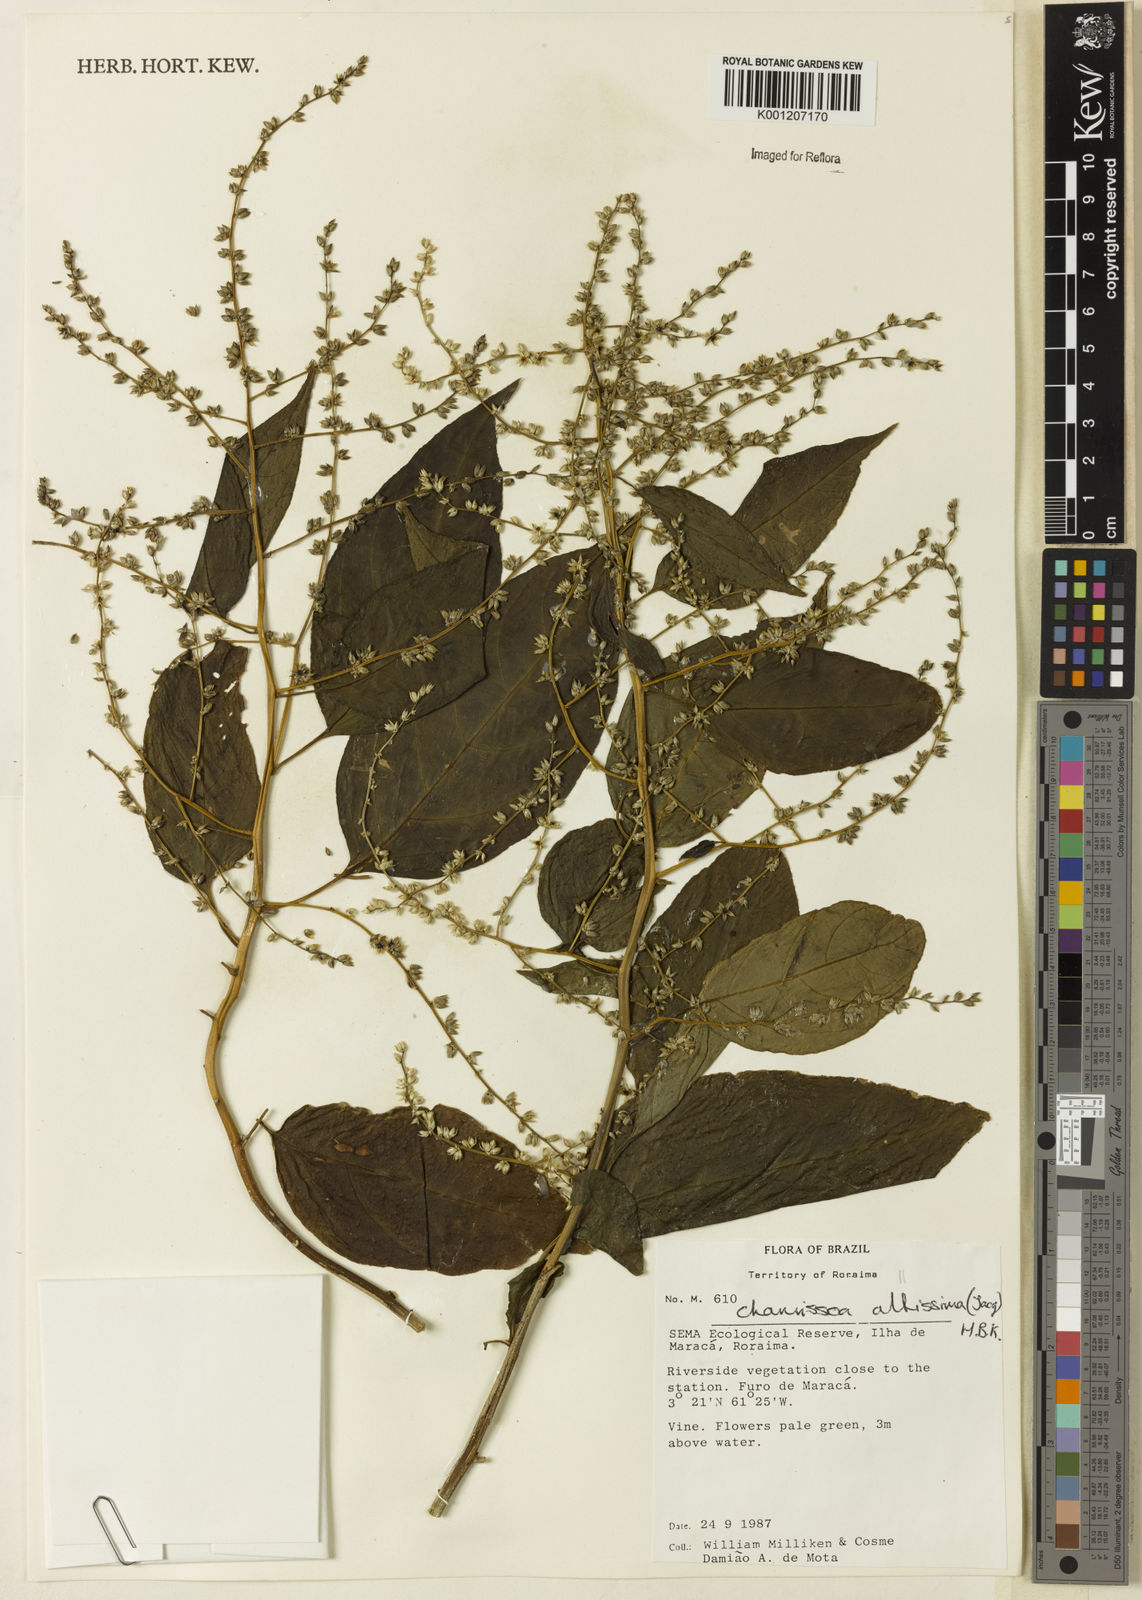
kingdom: Plantae
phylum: Tracheophyta
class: Magnoliopsida
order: Caryophyllales
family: Amaranthaceae
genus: Chamissoa
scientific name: Chamissoa altissima
